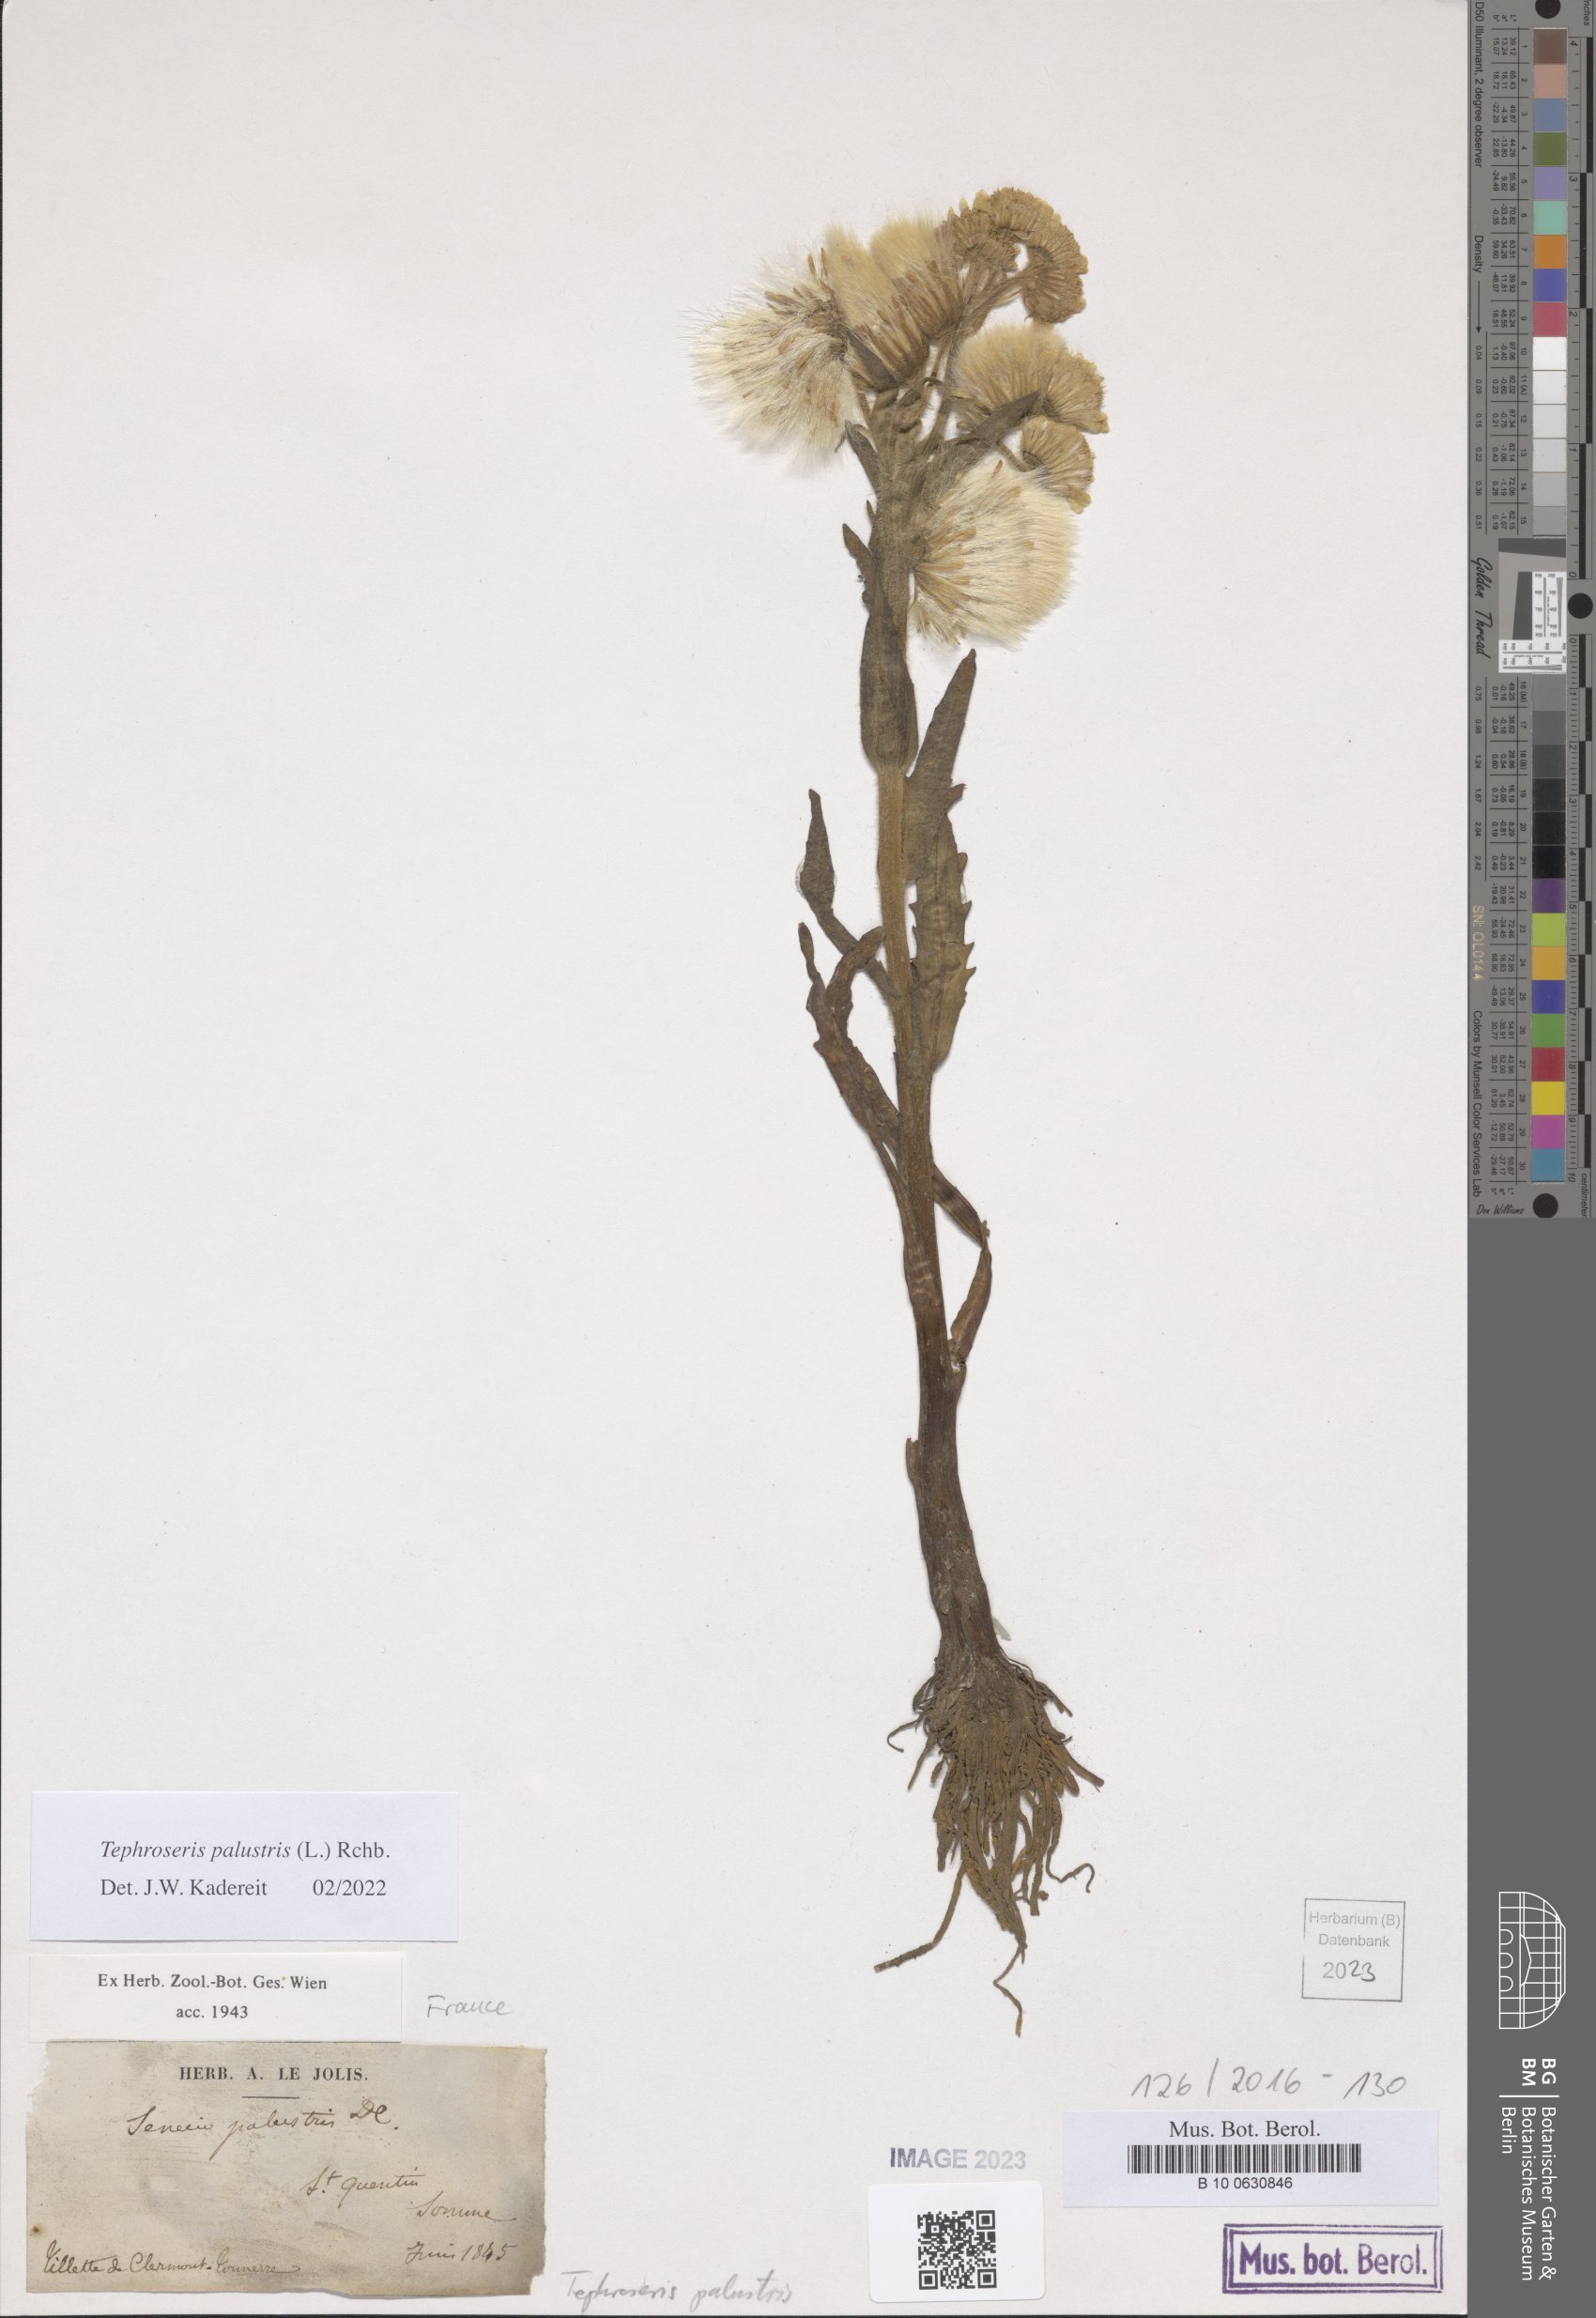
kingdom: Plantae
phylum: Tracheophyta
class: Magnoliopsida
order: Asterales
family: Asteraceae
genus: Tephroseris
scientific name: Tephroseris palustris
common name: Marsh fleawort
